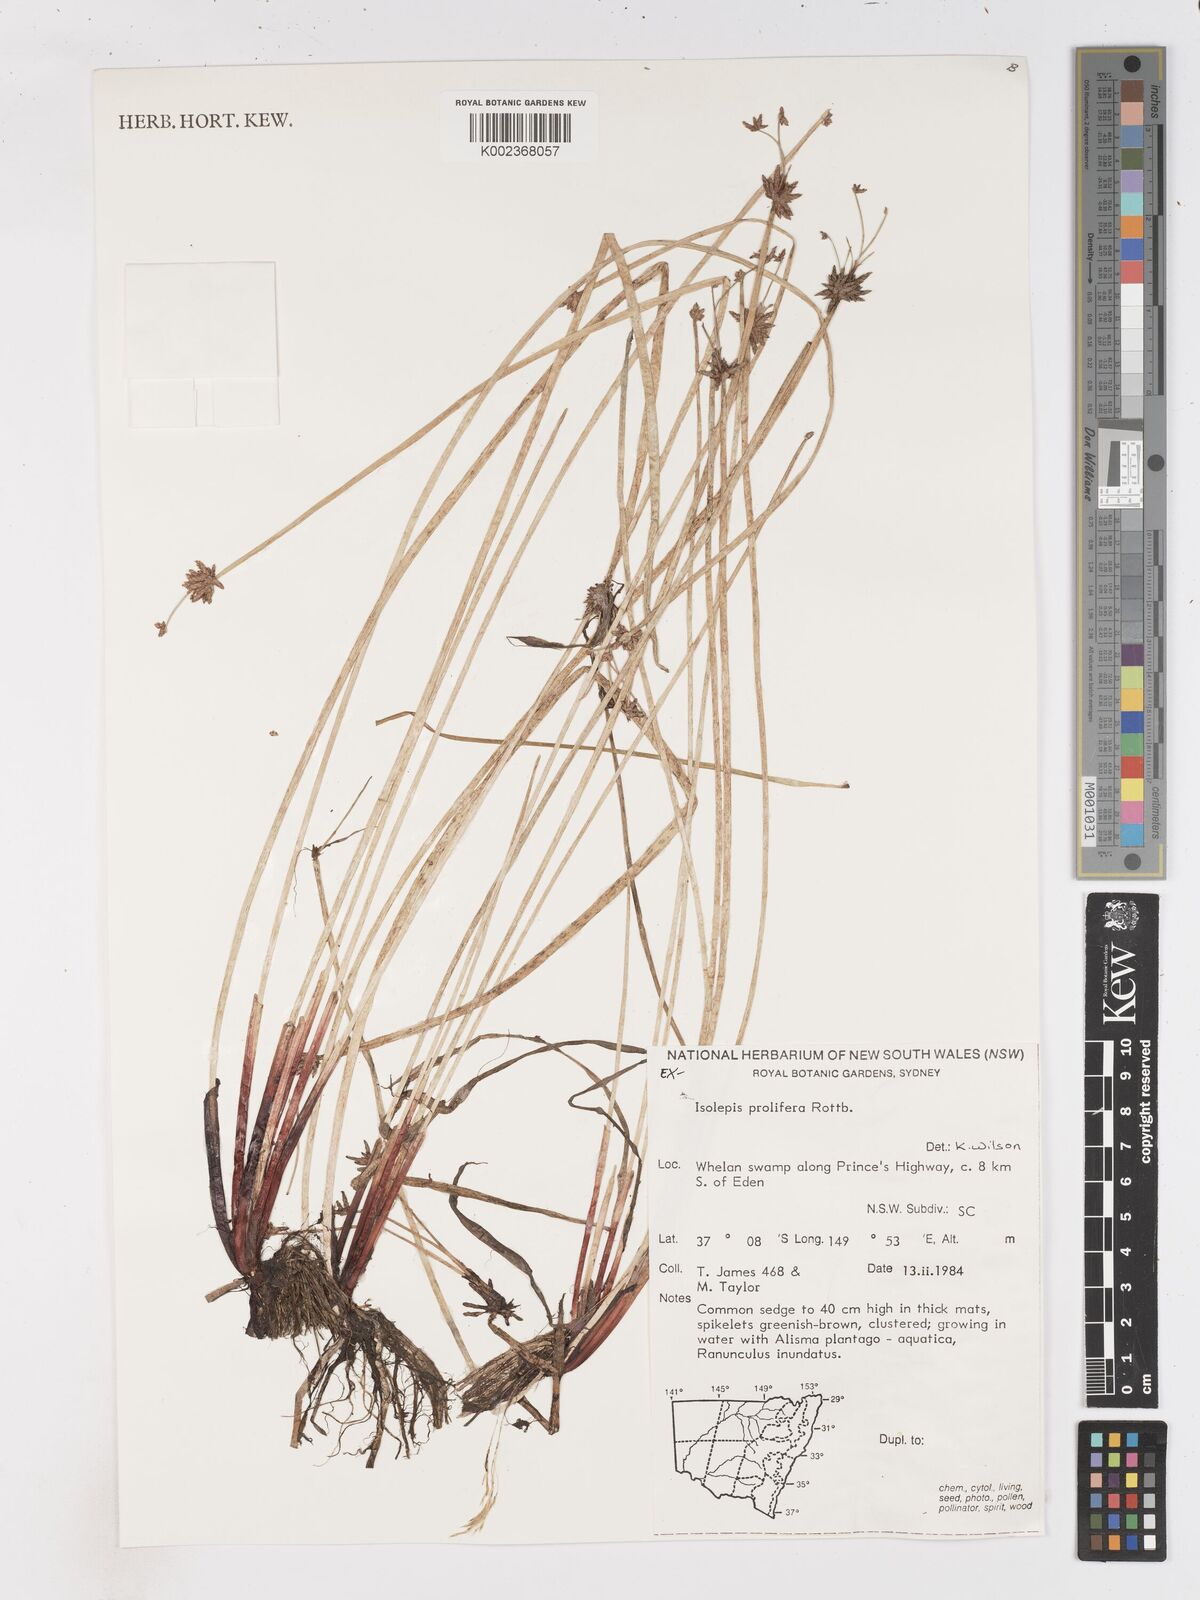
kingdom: Plantae
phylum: Tracheophyta
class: Liliopsida
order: Poales
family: Cyperaceae
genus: Isolepis
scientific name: Isolepis prolifera
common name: Proliferating bulrush
